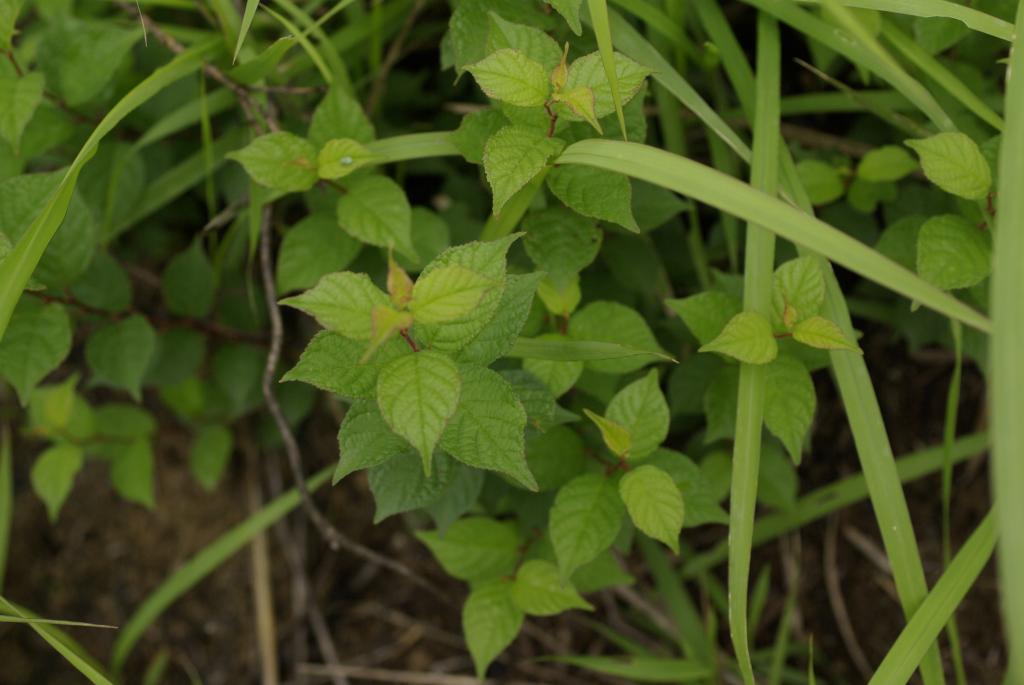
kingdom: Plantae
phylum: Tracheophyta
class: Magnoliopsida
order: Rosales
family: Rosaceae
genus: Prunus
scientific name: Prunus japonica
